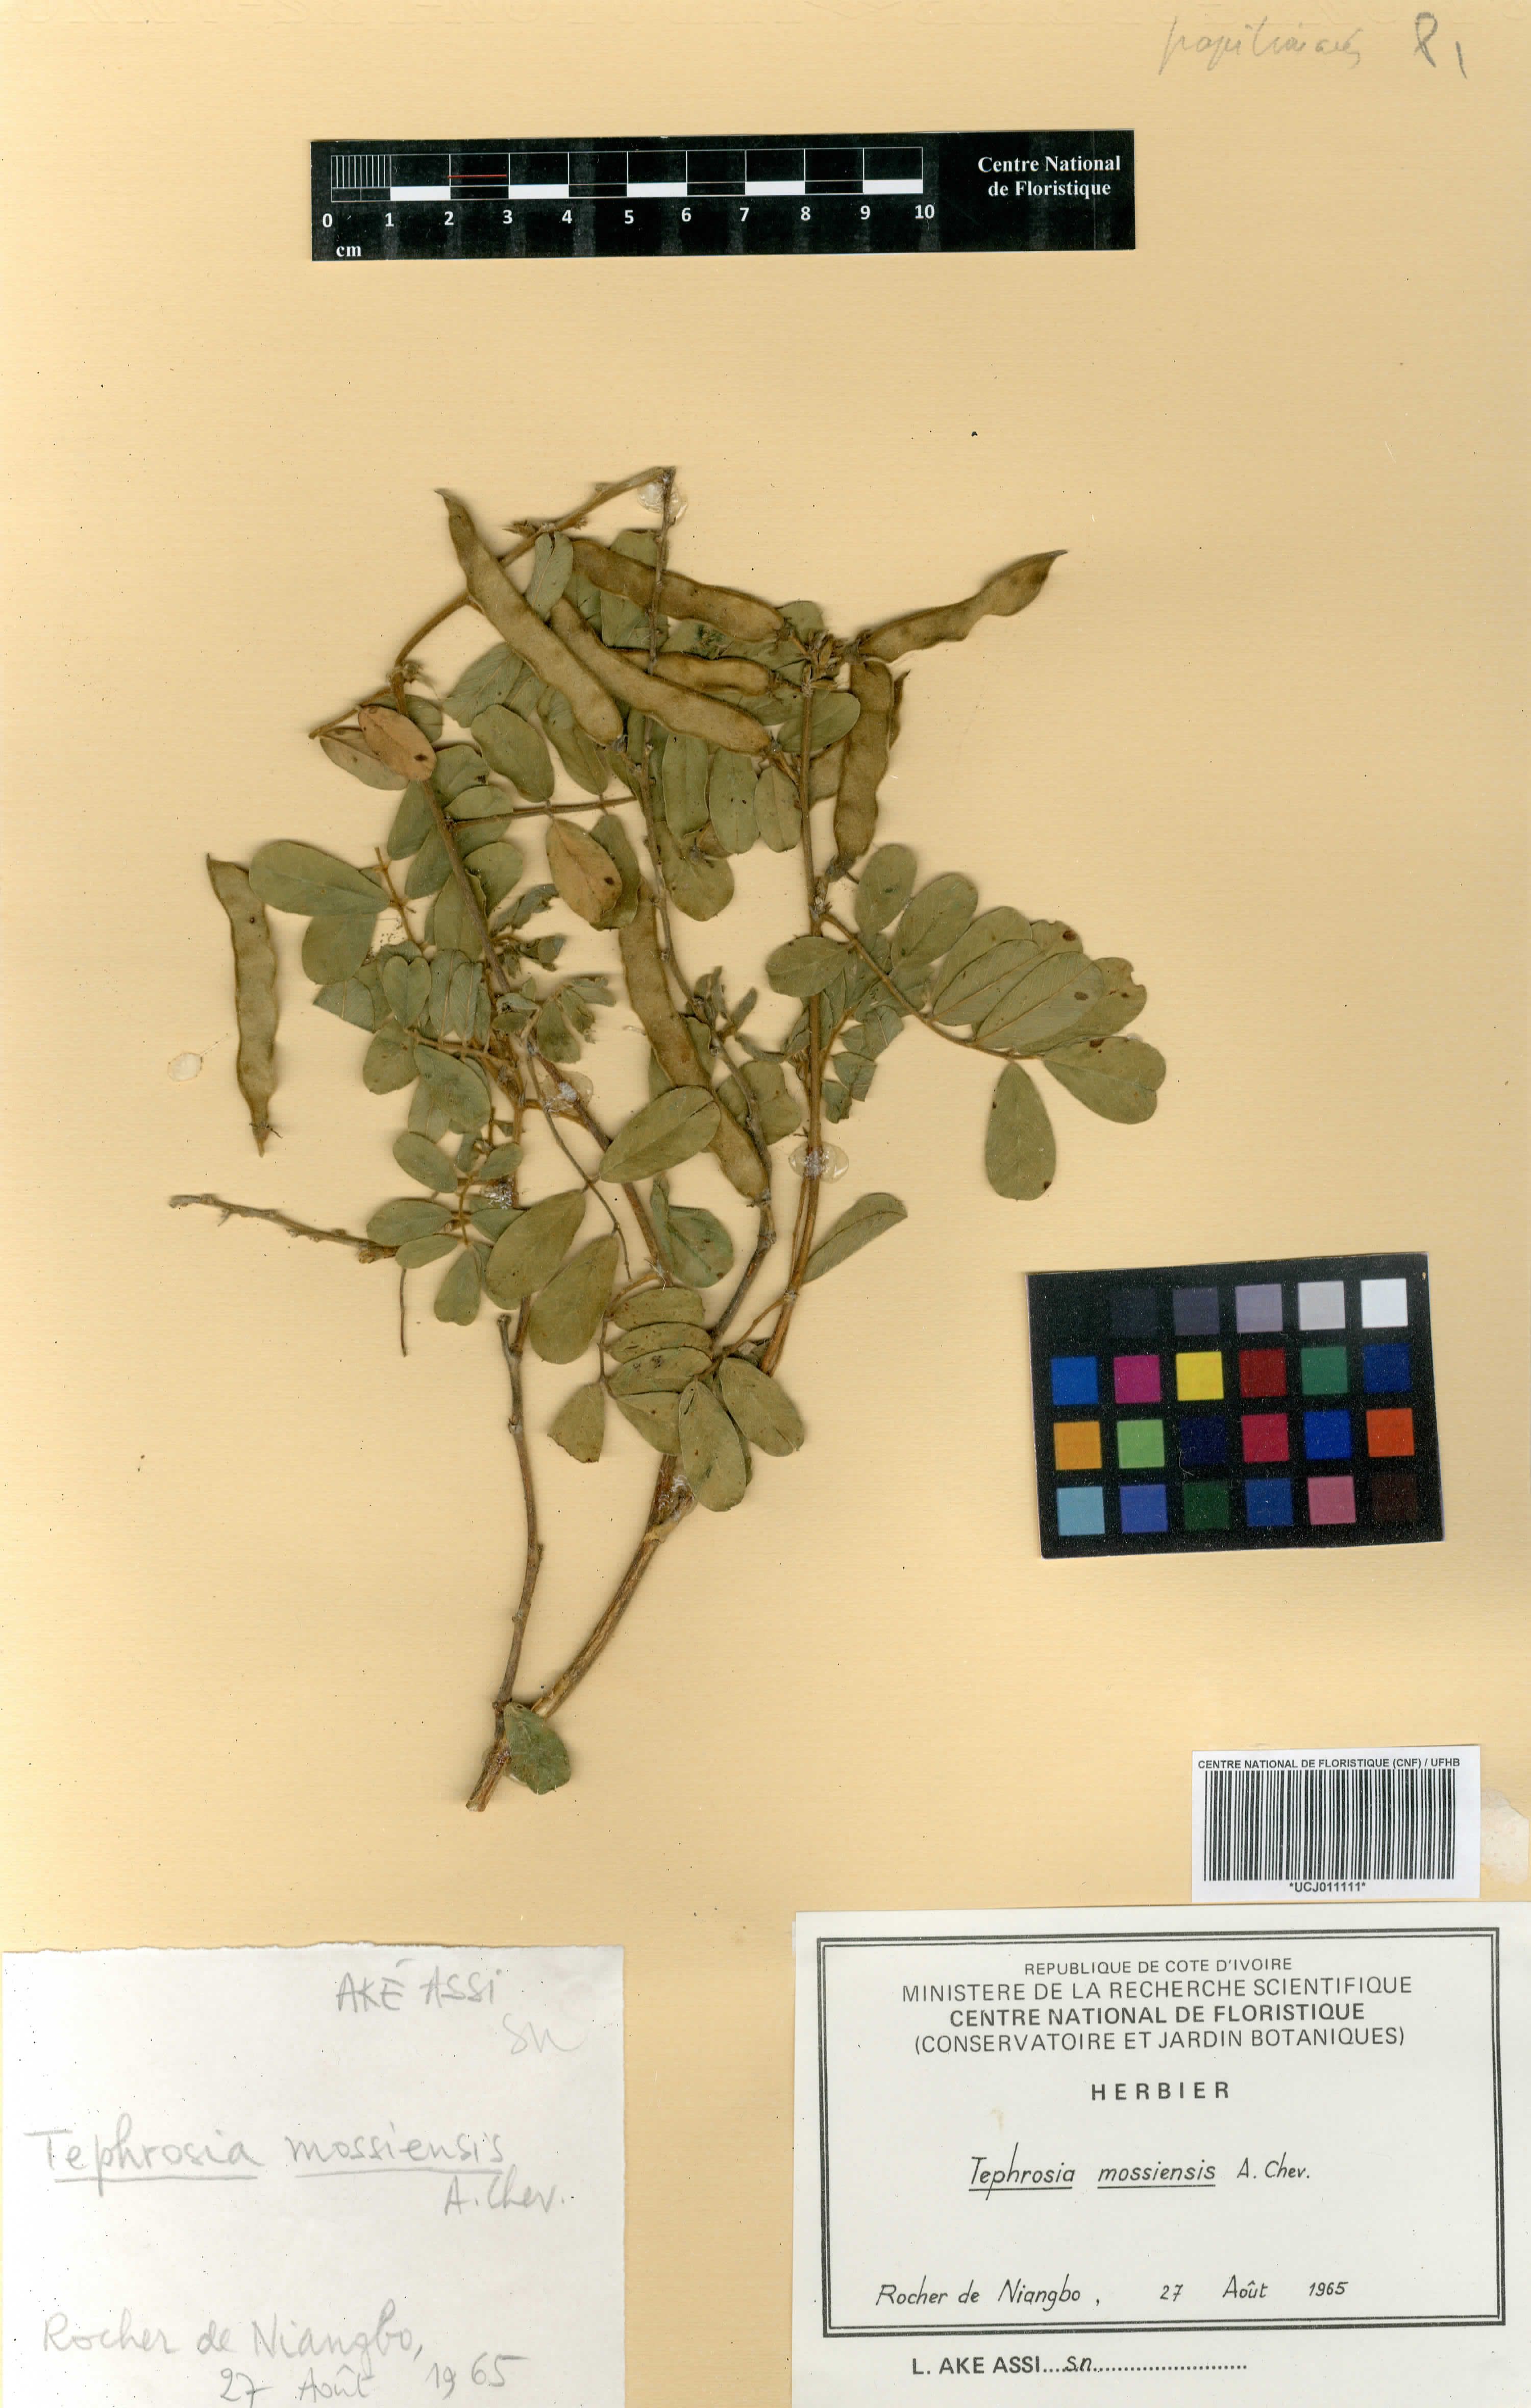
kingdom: Plantae
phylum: Tracheophyta
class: Magnoliopsida
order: Fabales
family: Fabaceae
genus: Tephrosia
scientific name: Tephrosia mossiensis
